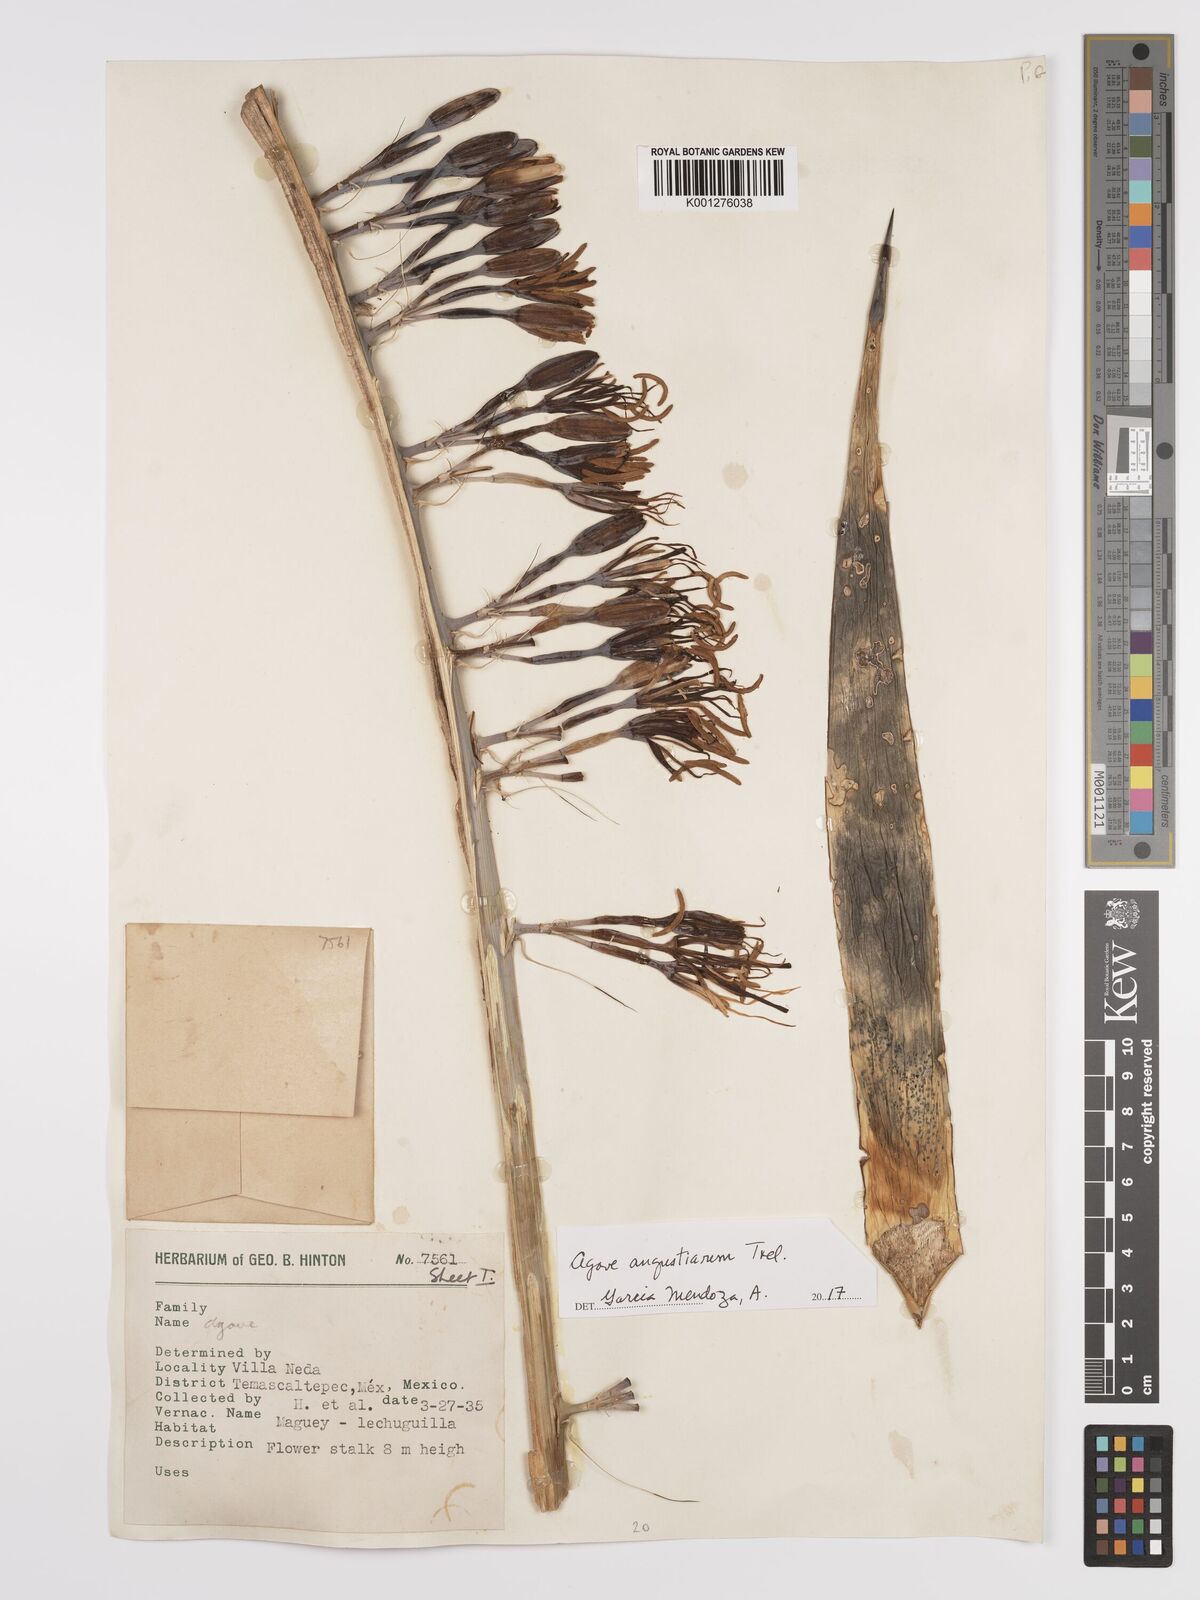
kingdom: Plantae
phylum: Tracheophyta
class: Liliopsida
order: Asparagales
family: Asparagaceae
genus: Agave
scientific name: Agave angustiarum
